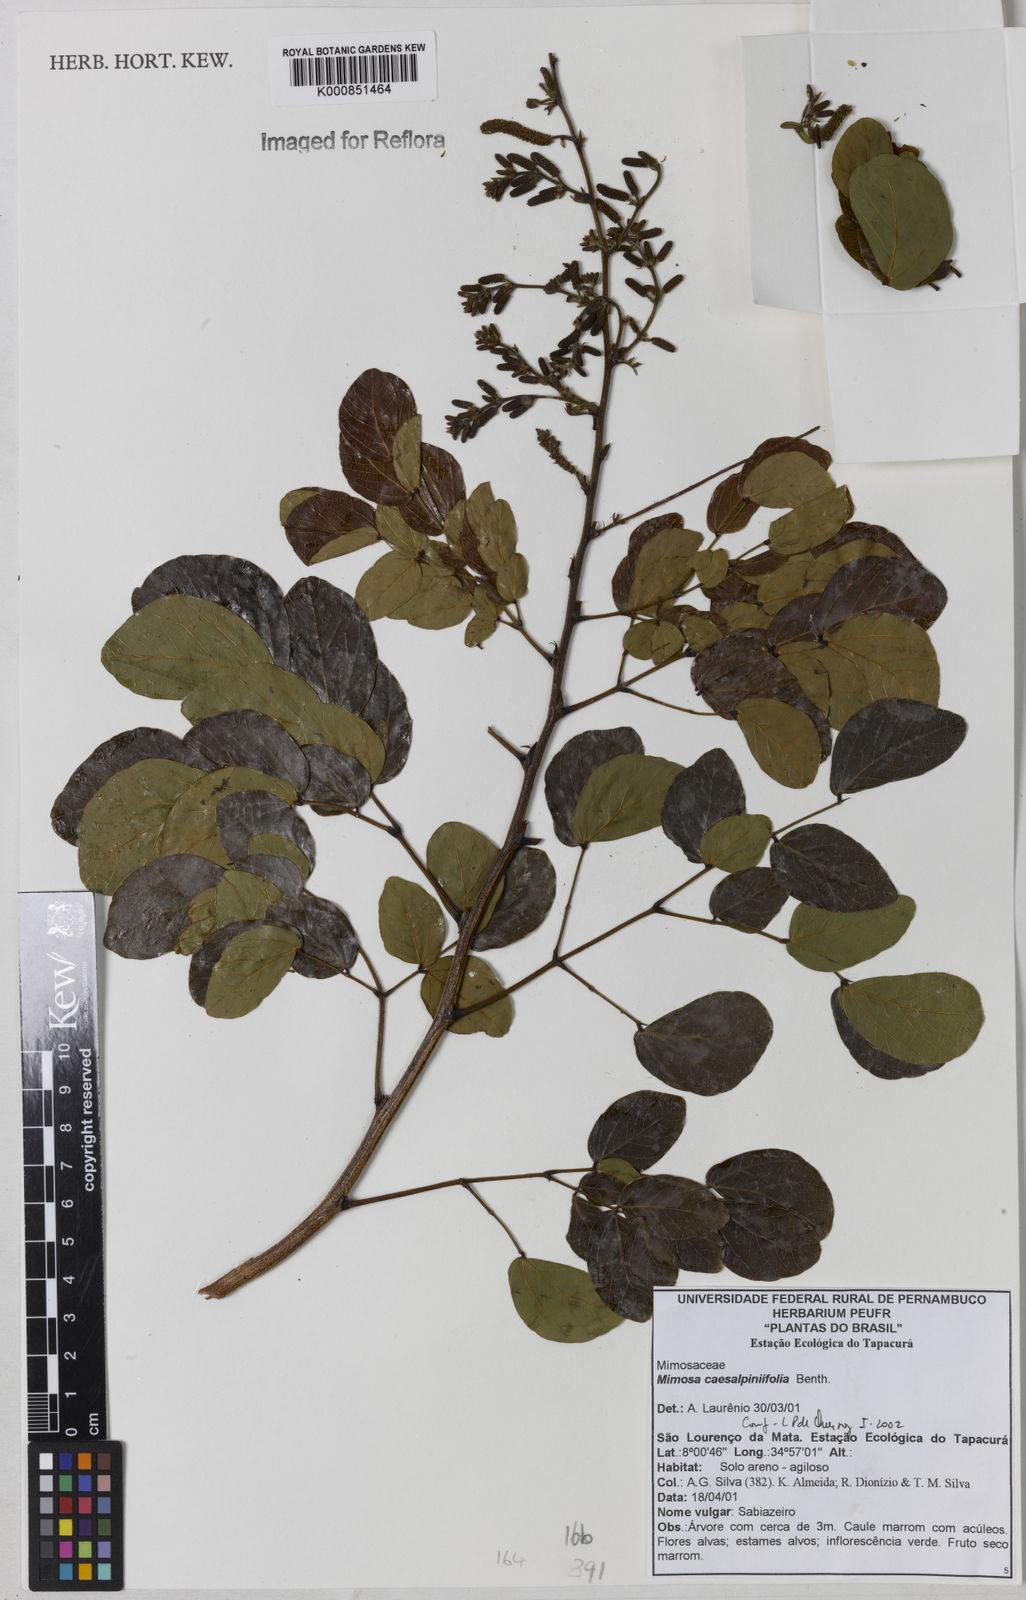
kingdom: Plantae
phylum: Tracheophyta
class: Magnoliopsida
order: Fabales
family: Fabaceae
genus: Mimosa
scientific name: Mimosa caesalpiniifolia
